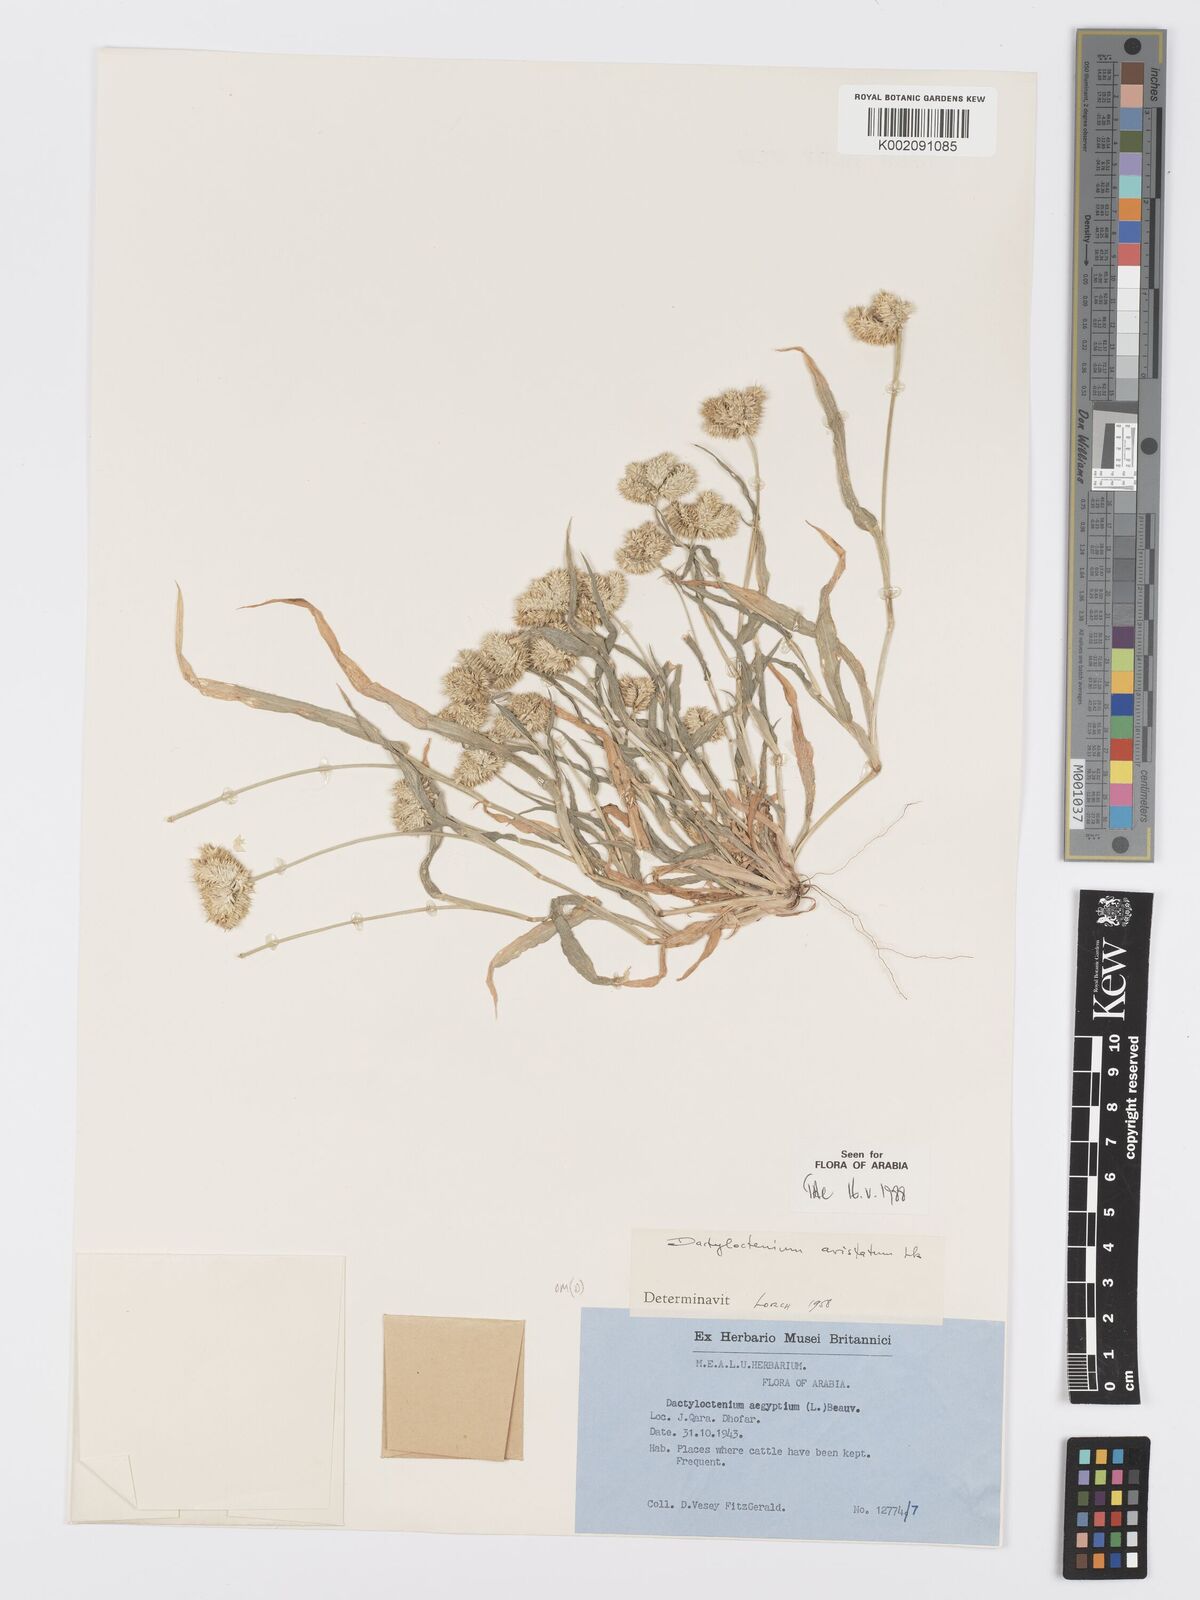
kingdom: Plantae
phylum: Tracheophyta
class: Liliopsida
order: Poales
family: Poaceae
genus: Dactyloctenium
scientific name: Dactyloctenium aristatum
